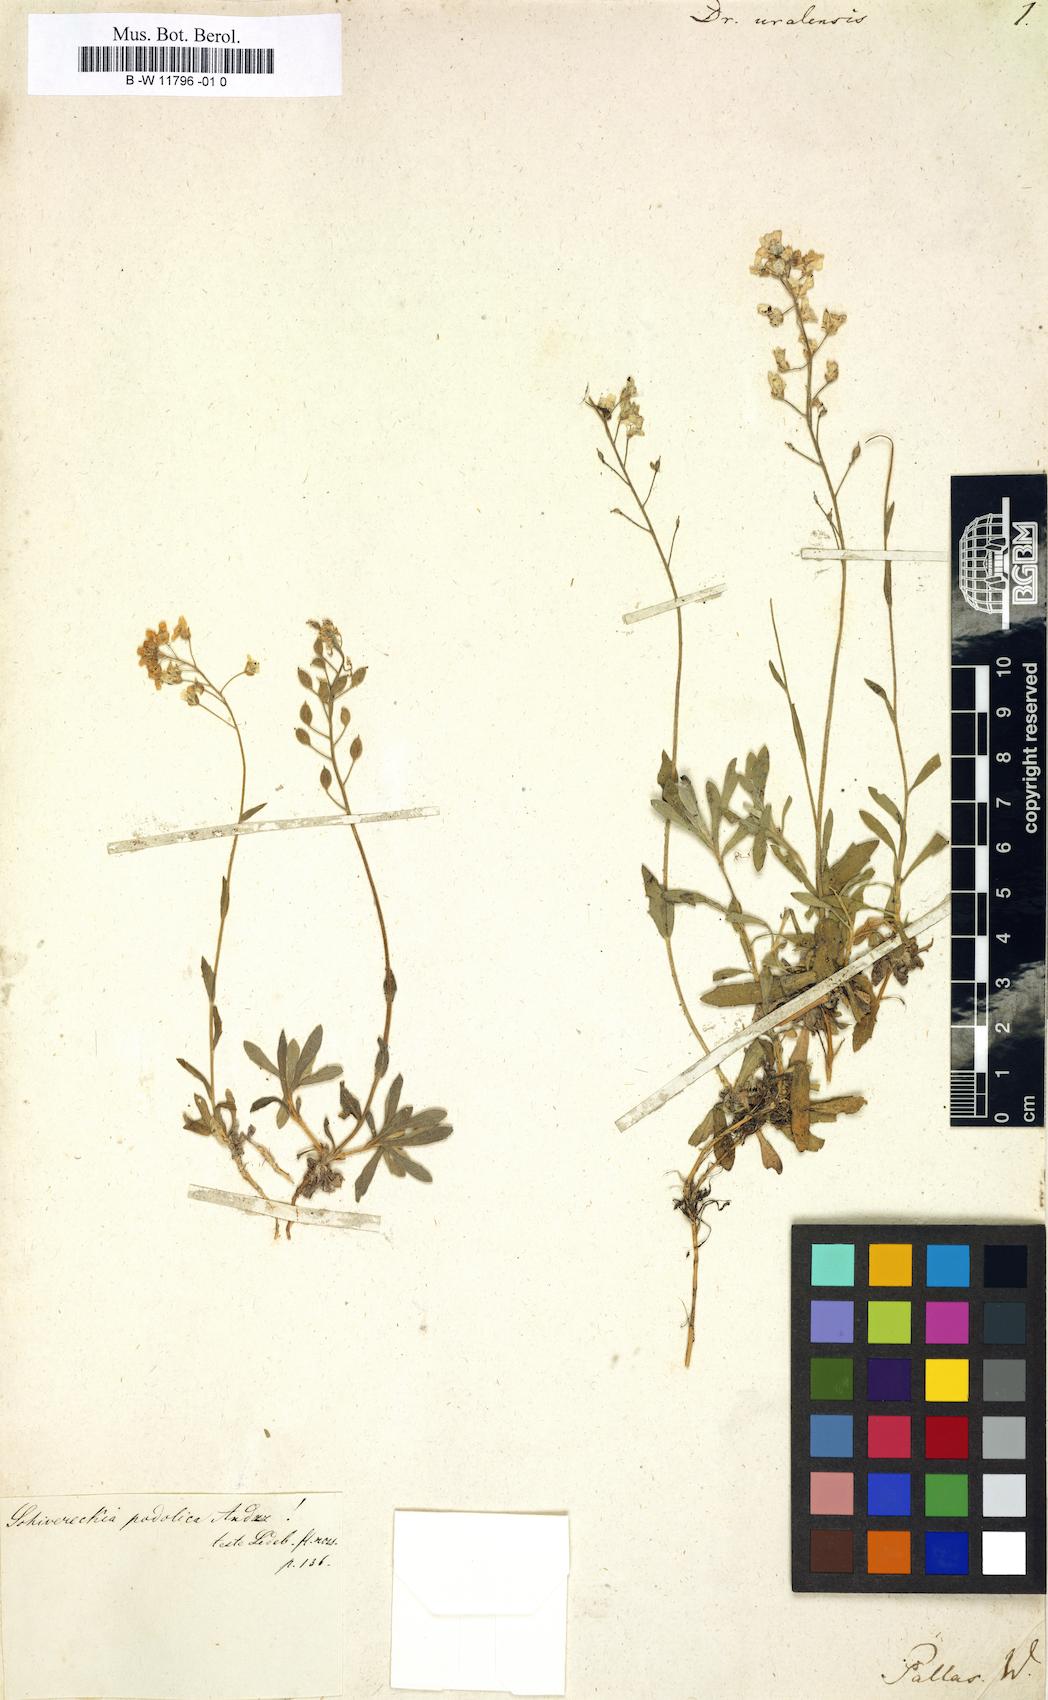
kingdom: Plantae
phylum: Tracheophyta
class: Magnoliopsida
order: Brassicales
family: Brassicaceae
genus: Draba
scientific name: Draba hyperborea
